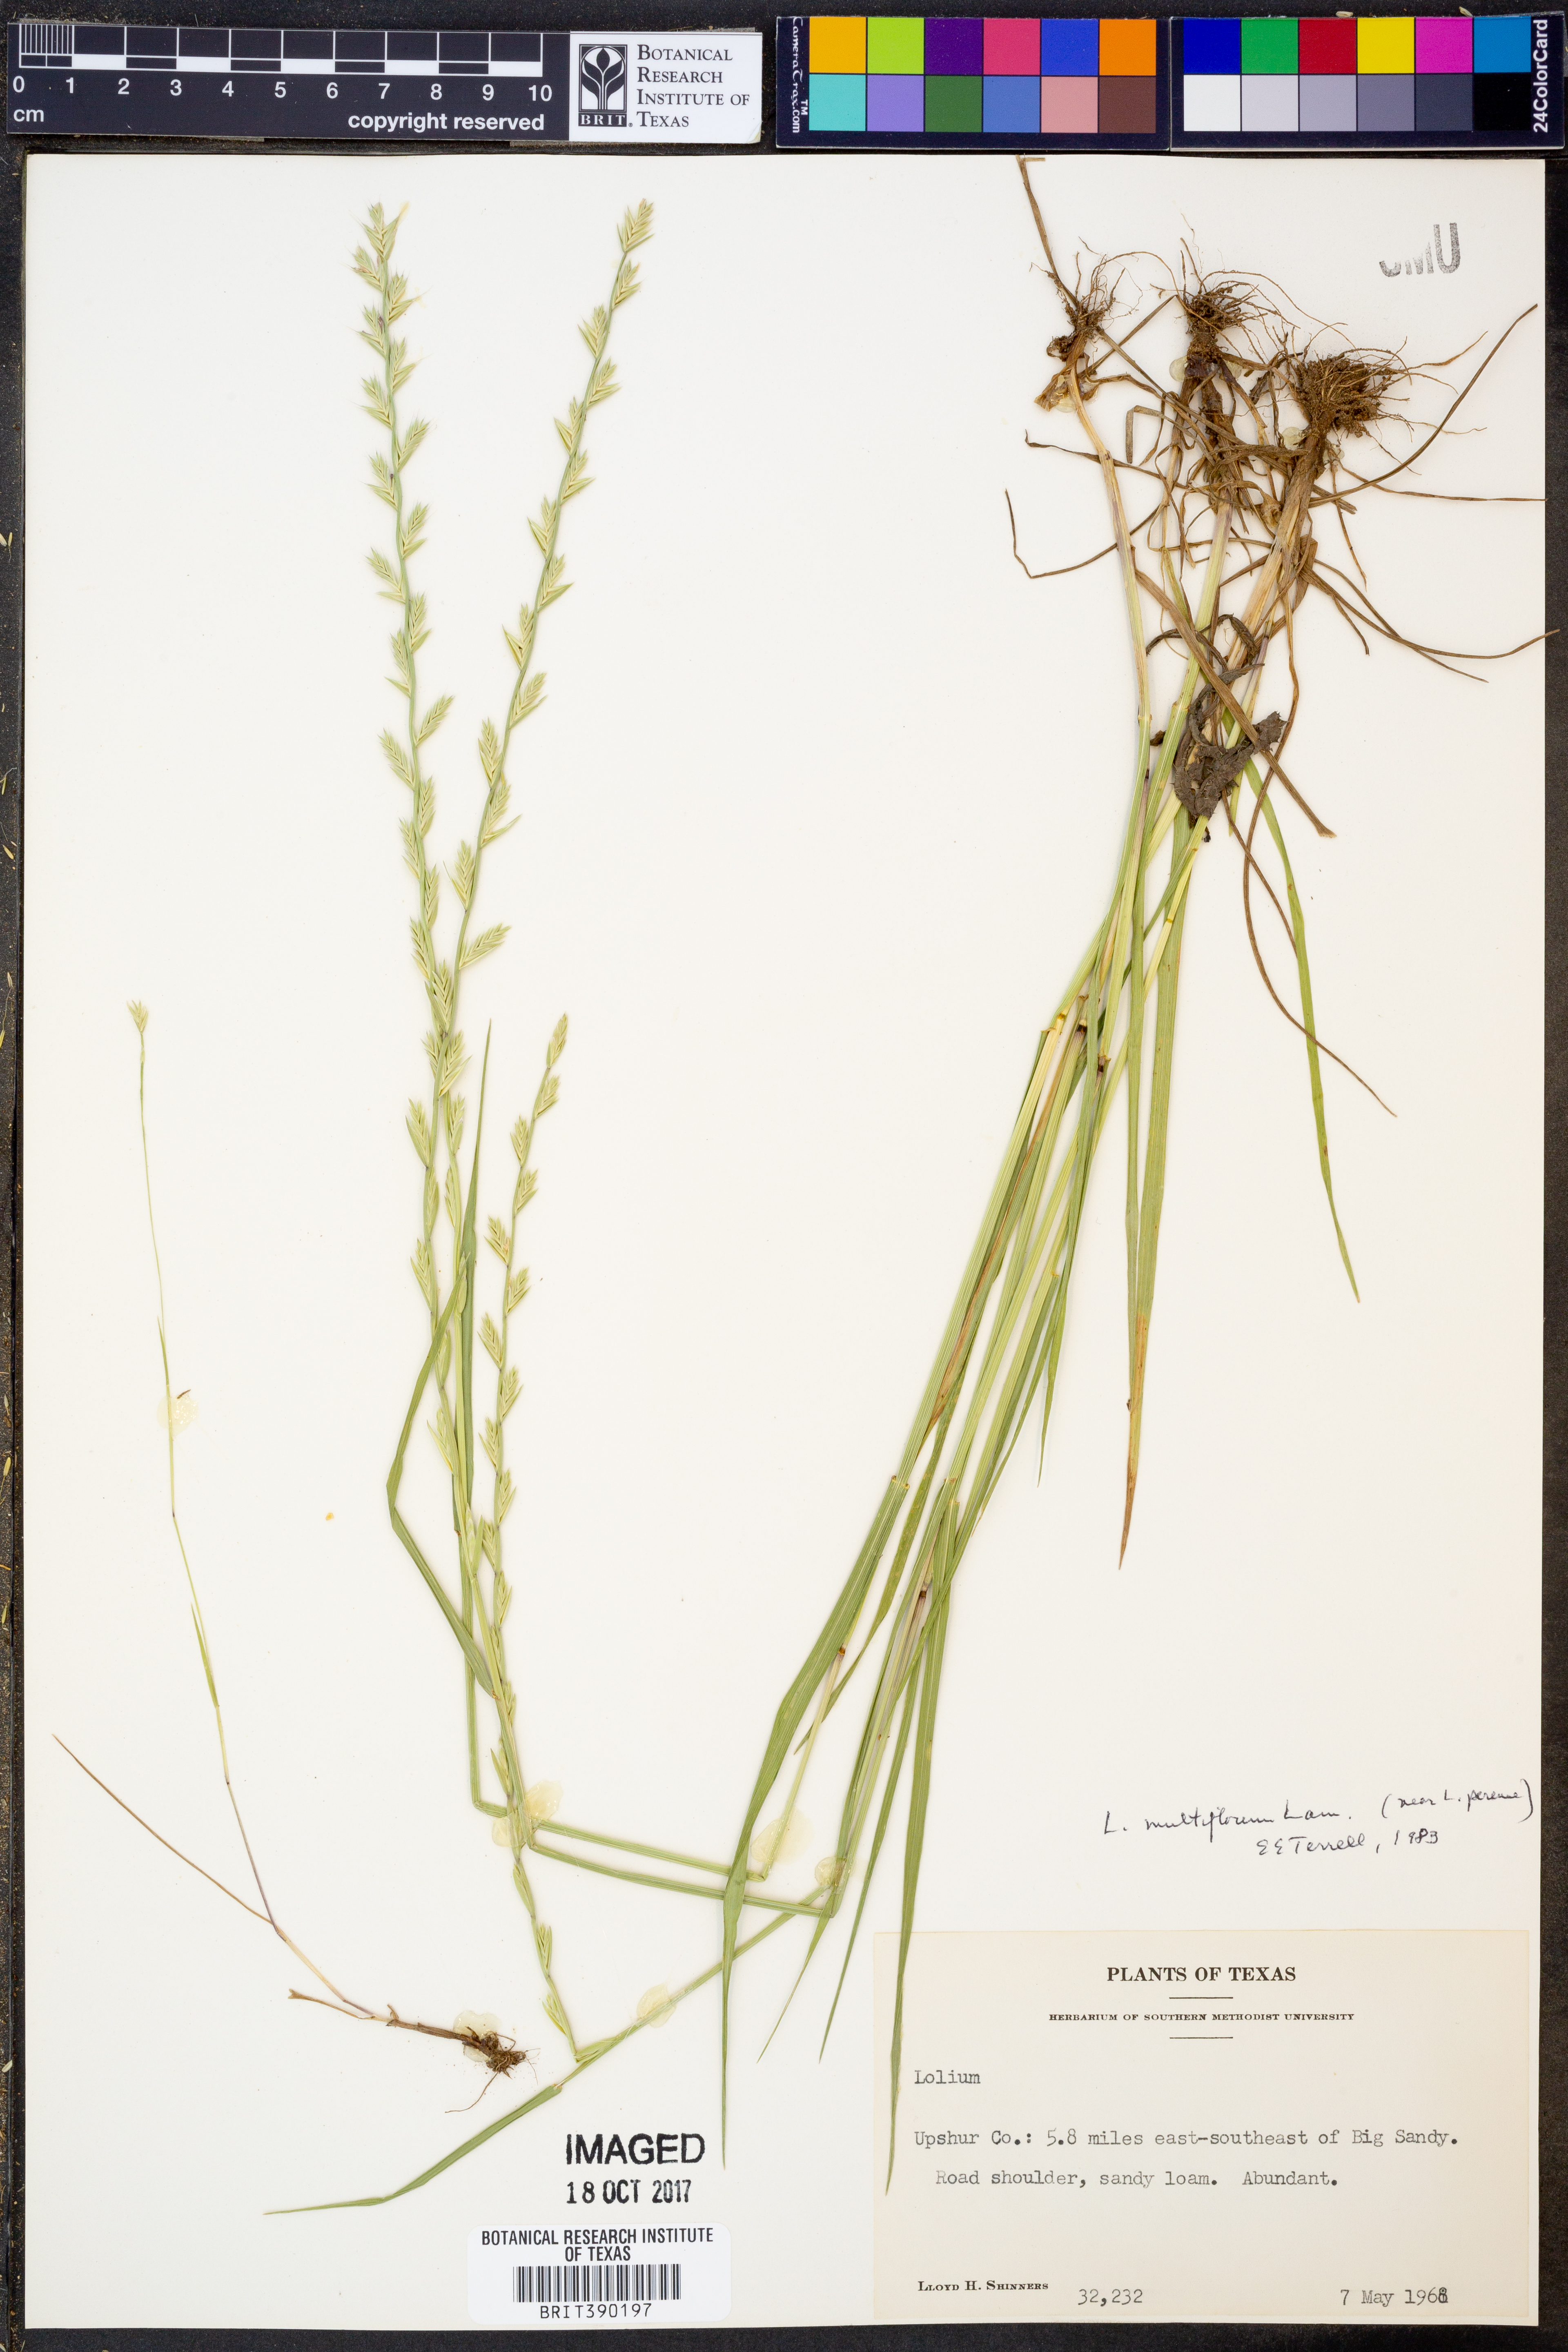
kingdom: Plantae
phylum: Tracheophyta
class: Liliopsida
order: Poales
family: Poaceae
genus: Lolium
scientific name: Lolium multiflorum
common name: Annual ryegrass
